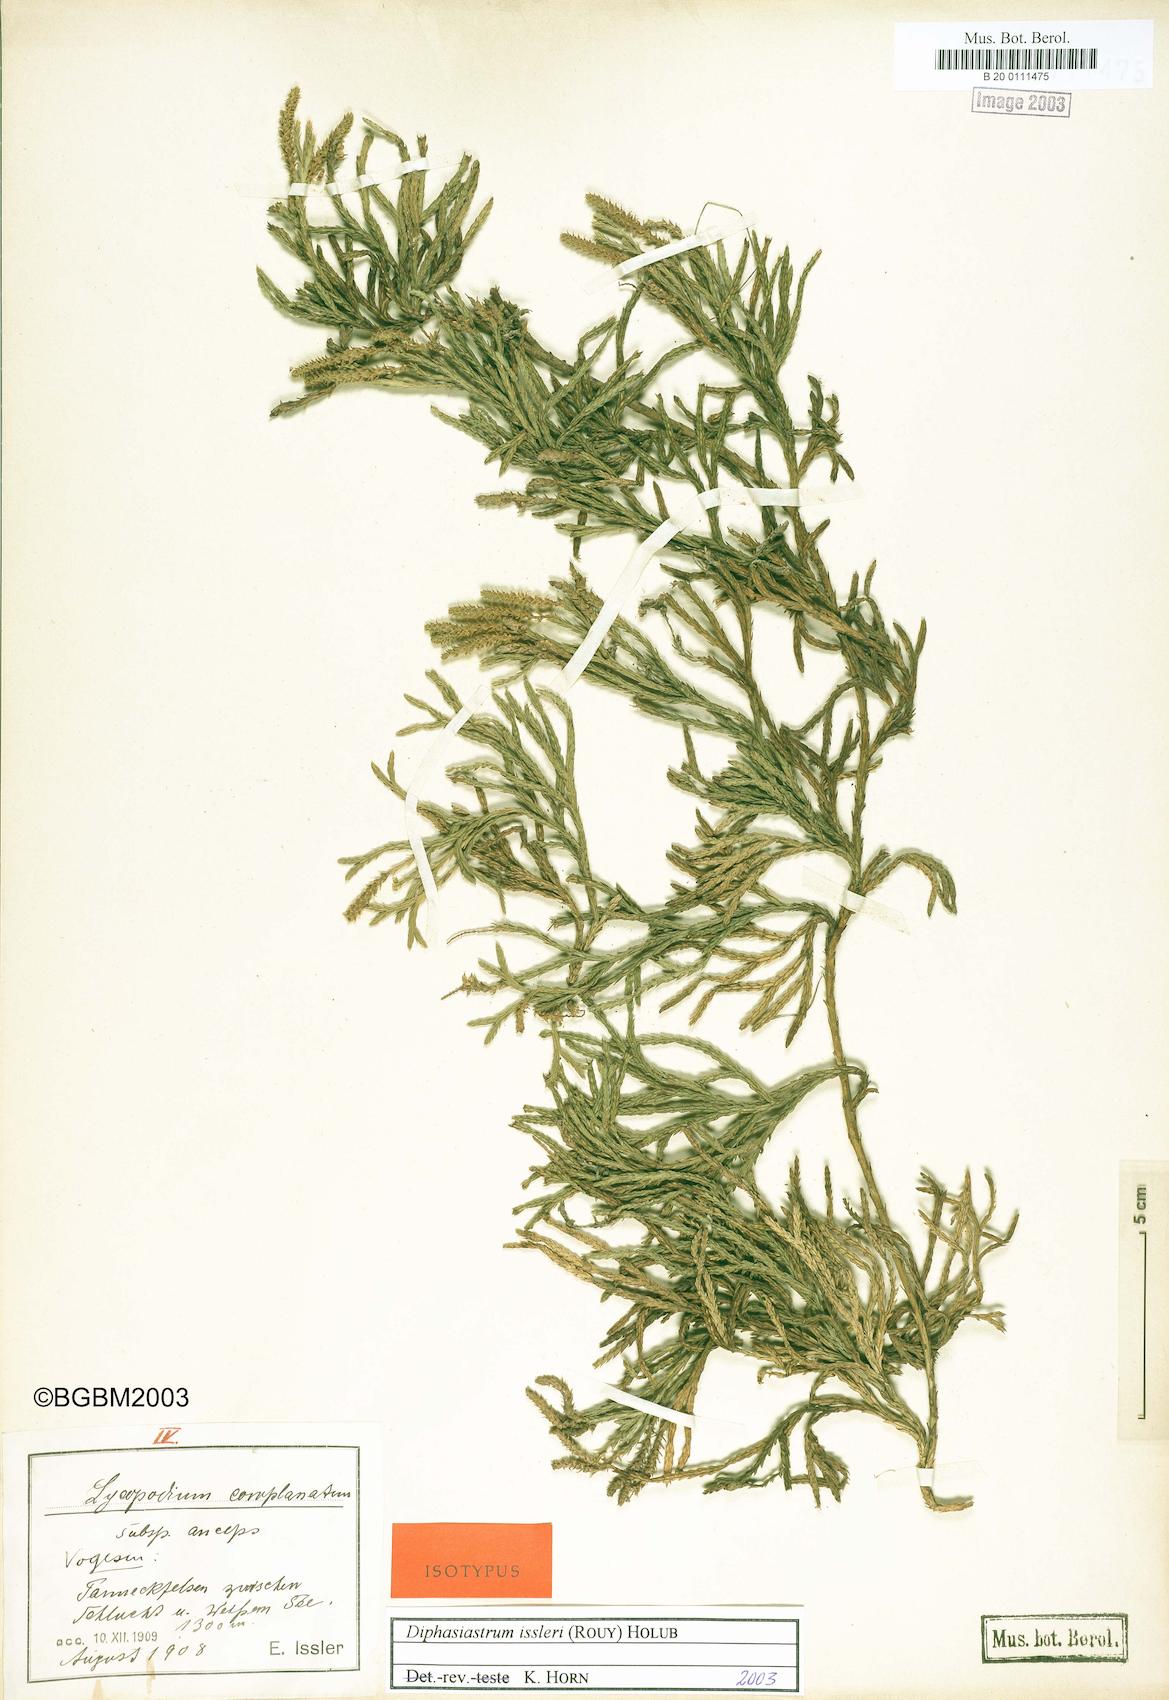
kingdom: Plantae
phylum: Tracheophyta
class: Lycopodiopsida
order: Lycopodiales
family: Lycopodiaceae
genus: Lycopodium
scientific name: Lycopodium issleri
